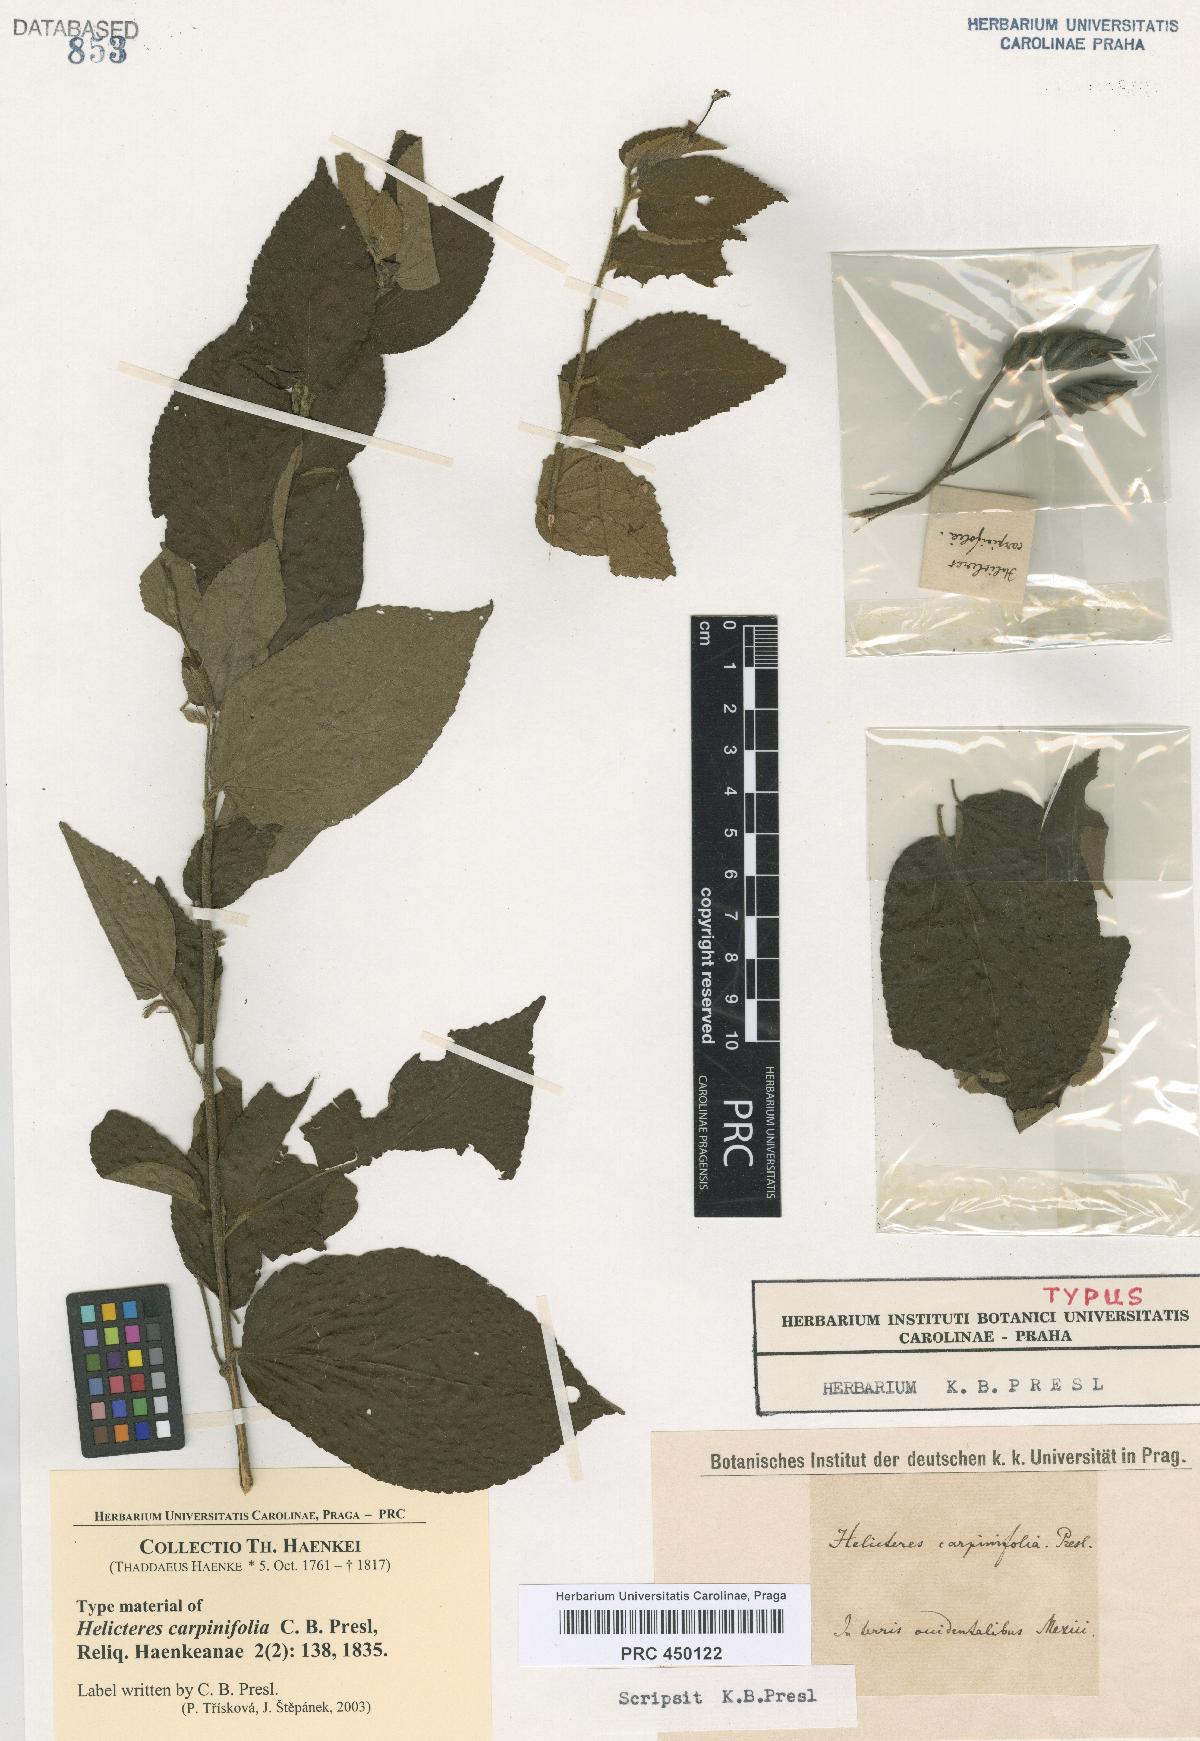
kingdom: Plantae
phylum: Tracheophyta
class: Magnoliopsida
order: Malvales
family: Malvaceae
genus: Helicteres
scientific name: Helicteres guazumifolia
